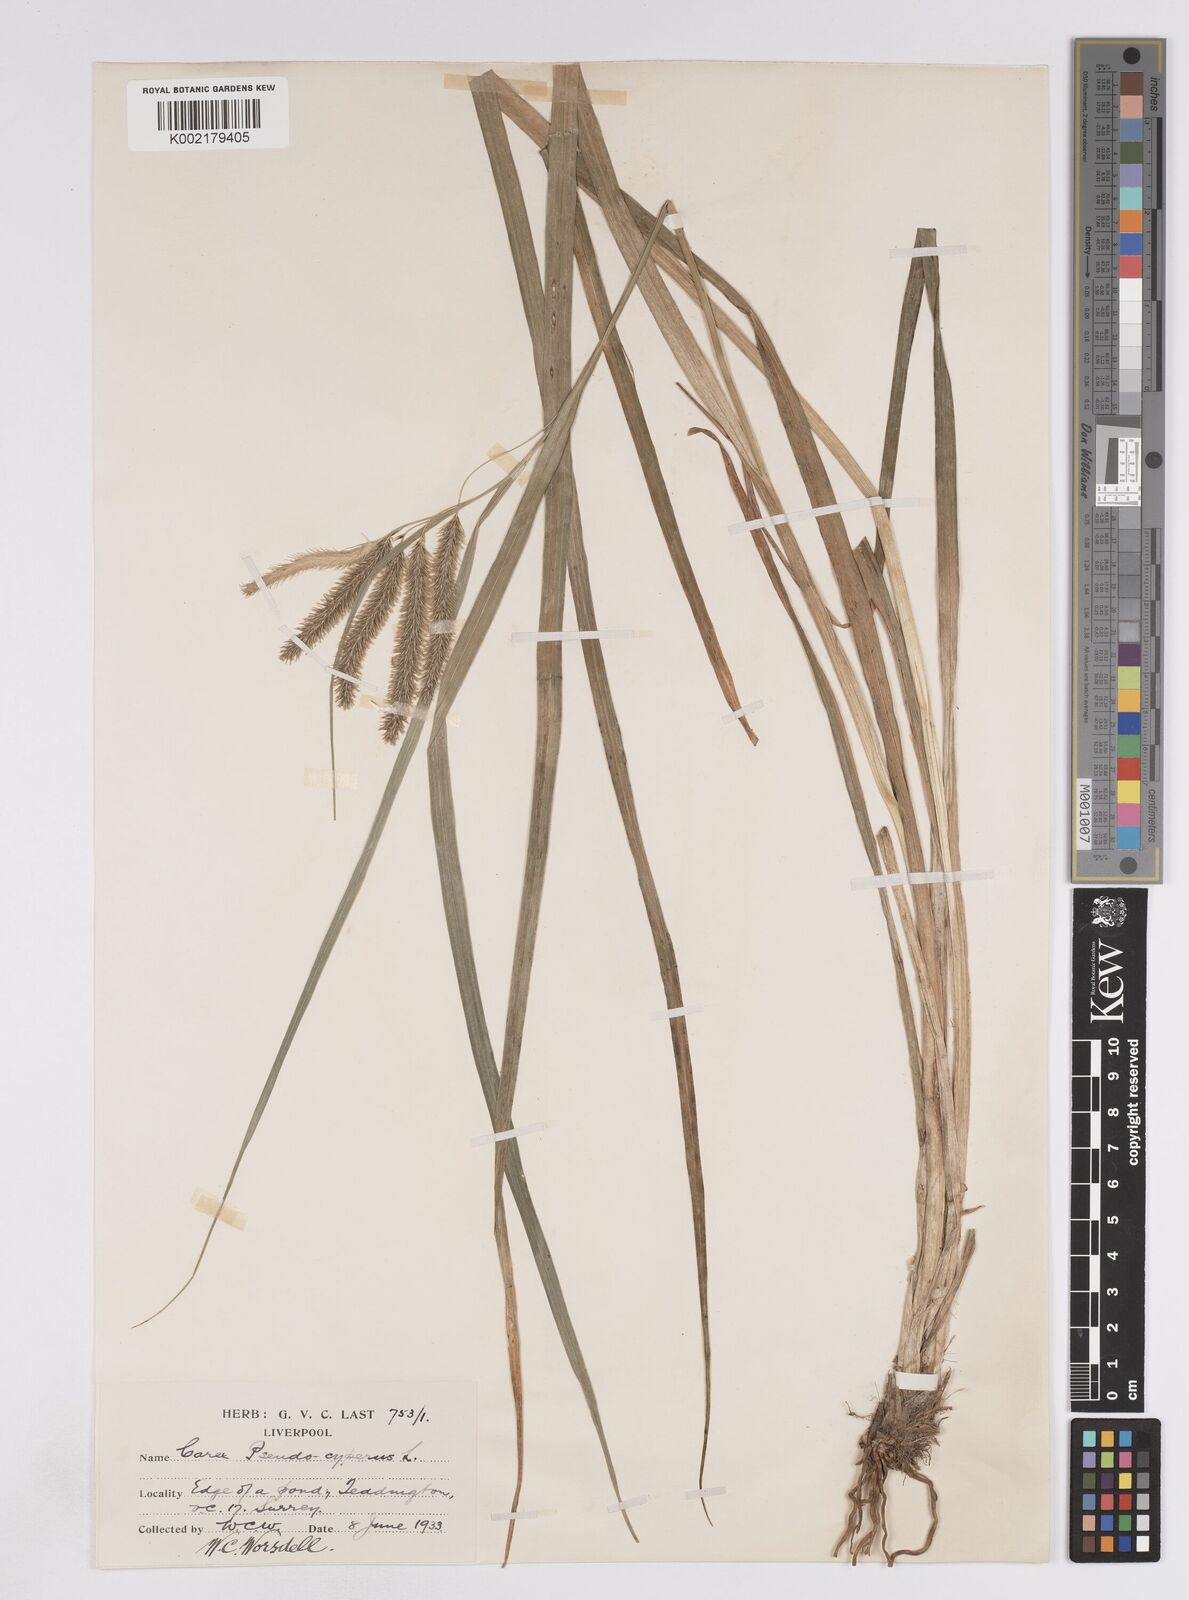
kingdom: Plantae
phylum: Tracheophyta
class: Liliopsida
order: Poales
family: Cyperaceae
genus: Carex
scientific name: Carex pseudocyperus
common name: Cyperus sedge
